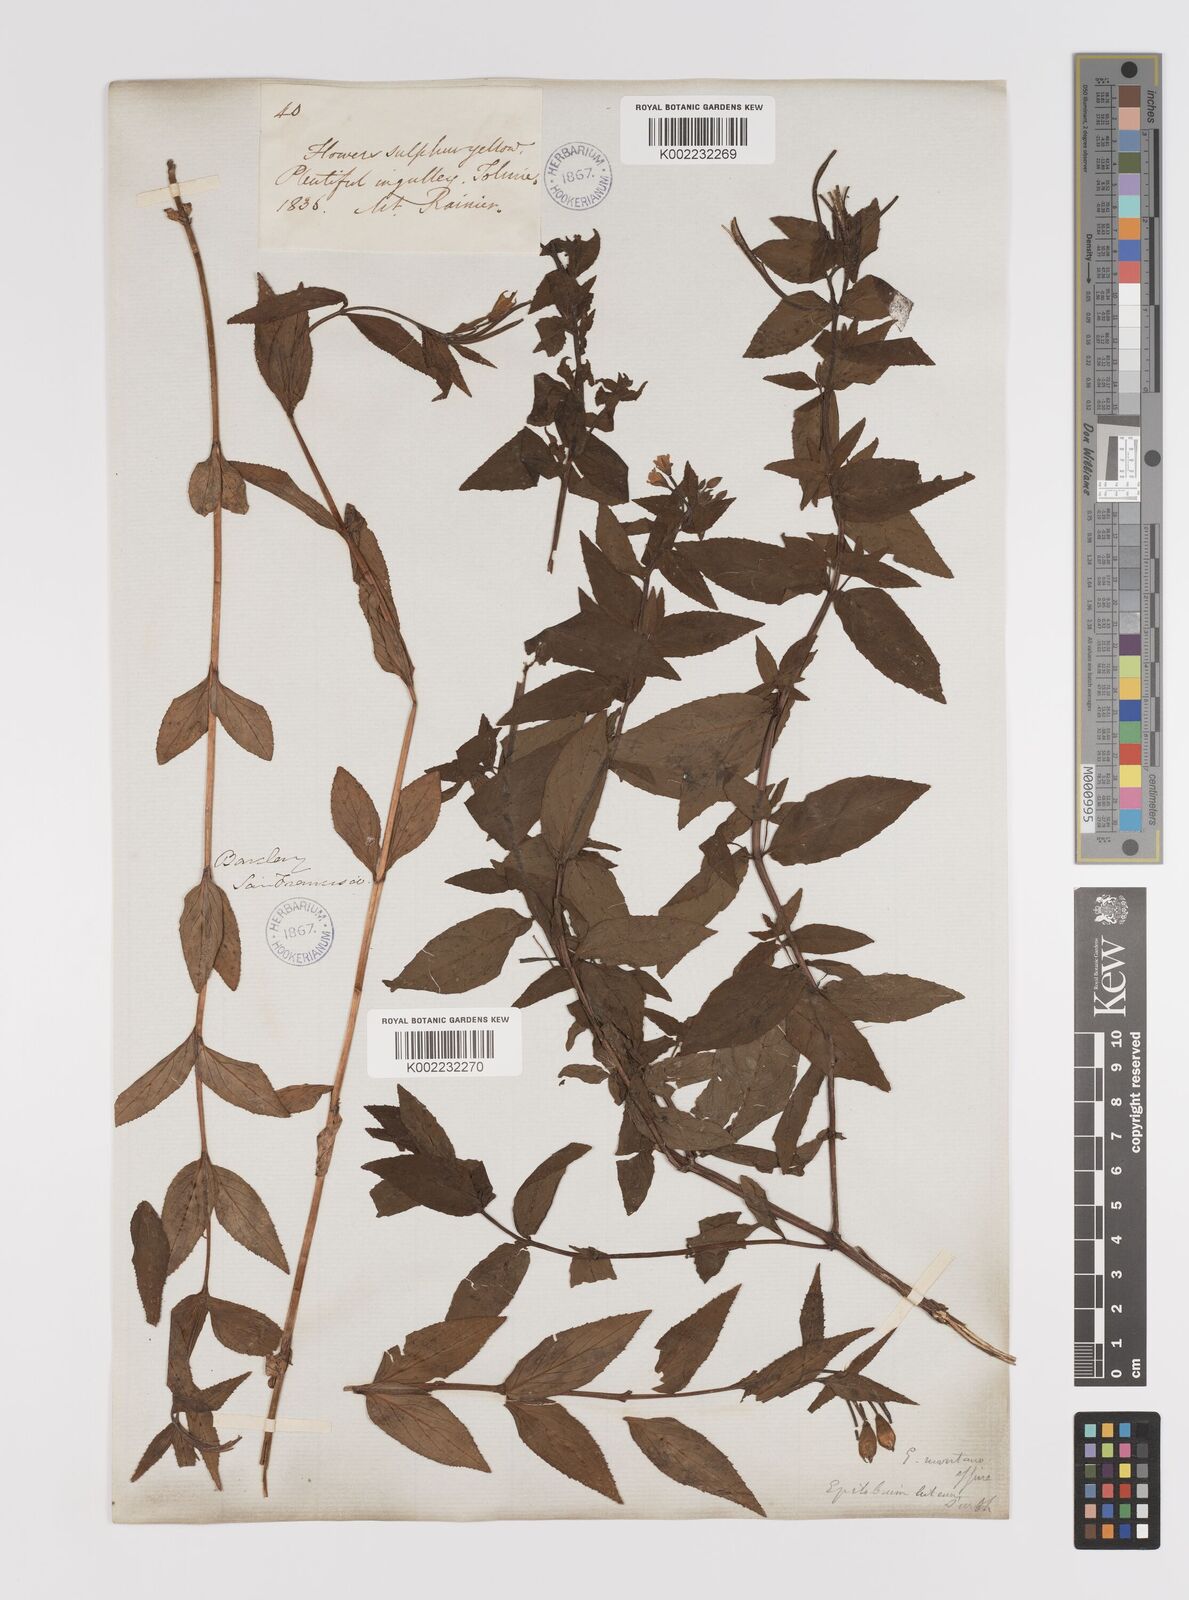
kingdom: Plantae
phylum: Tracheophyta
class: Magnoliopsida
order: Myrtales
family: Onagraceae
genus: Epilobium
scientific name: Epilobium luteum
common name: Yellow willowherb
